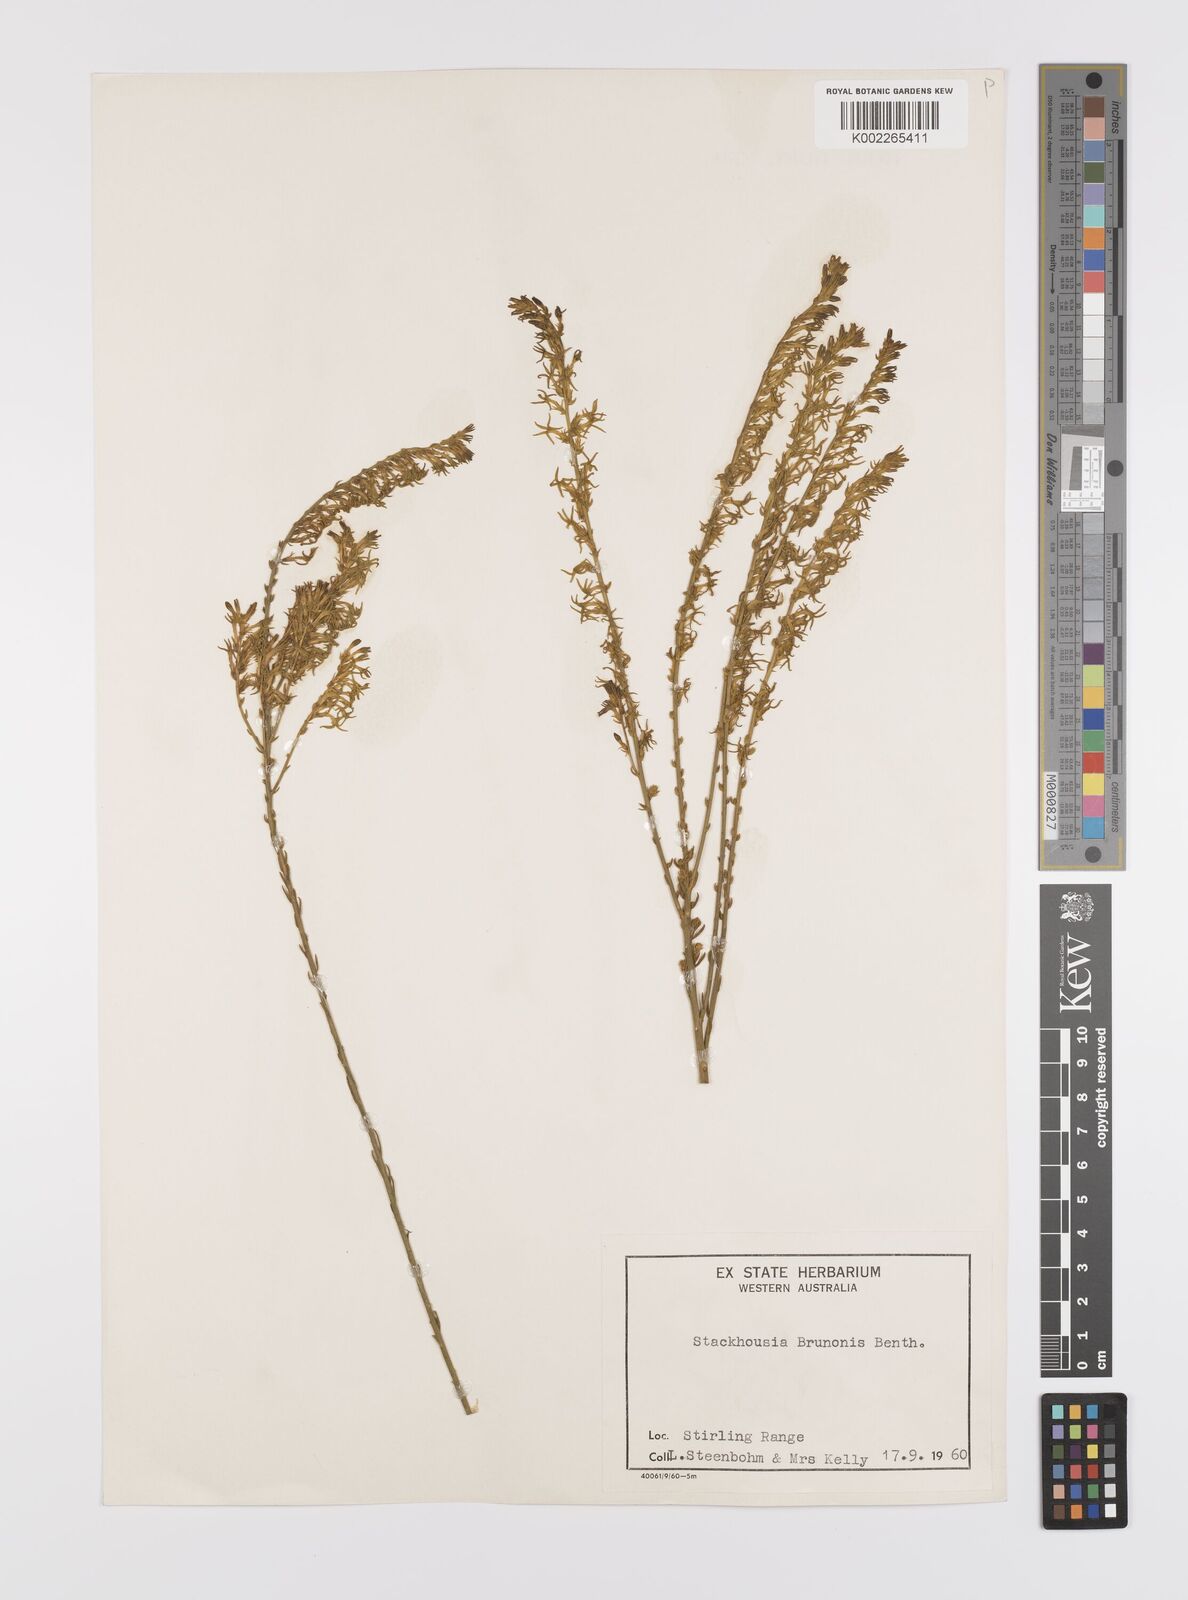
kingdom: Plantae
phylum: Tracheophyta
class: Magnoliopsida
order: Celastrales
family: Celastraceae
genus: Tripterococcus
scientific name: Tripterococcus brunonis
